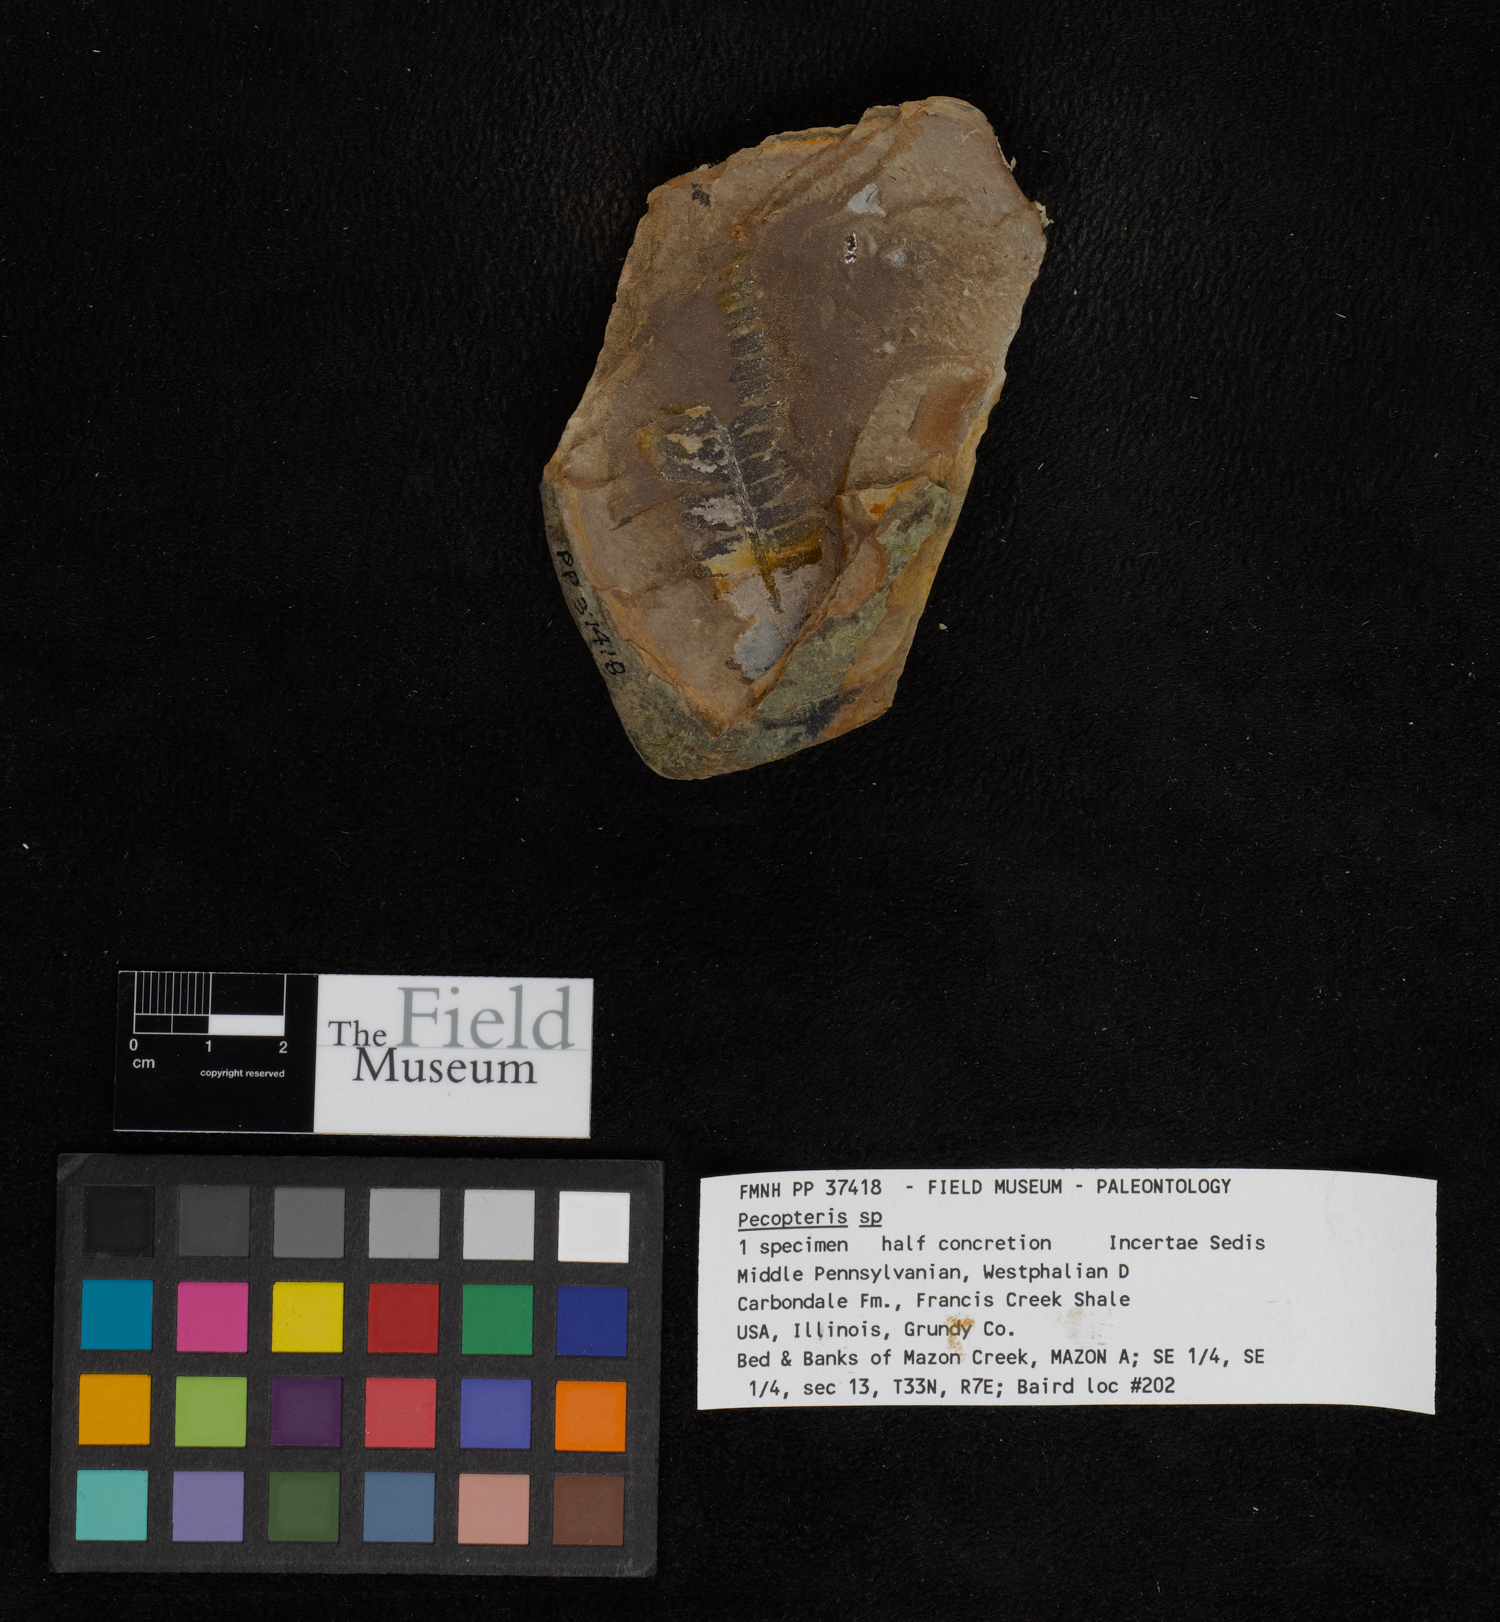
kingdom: Plantae
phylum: Tracheophyta
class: Polypodiopsida
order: Marattiales
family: Asterothecaceae
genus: Pecopteris
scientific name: Pecopteris
